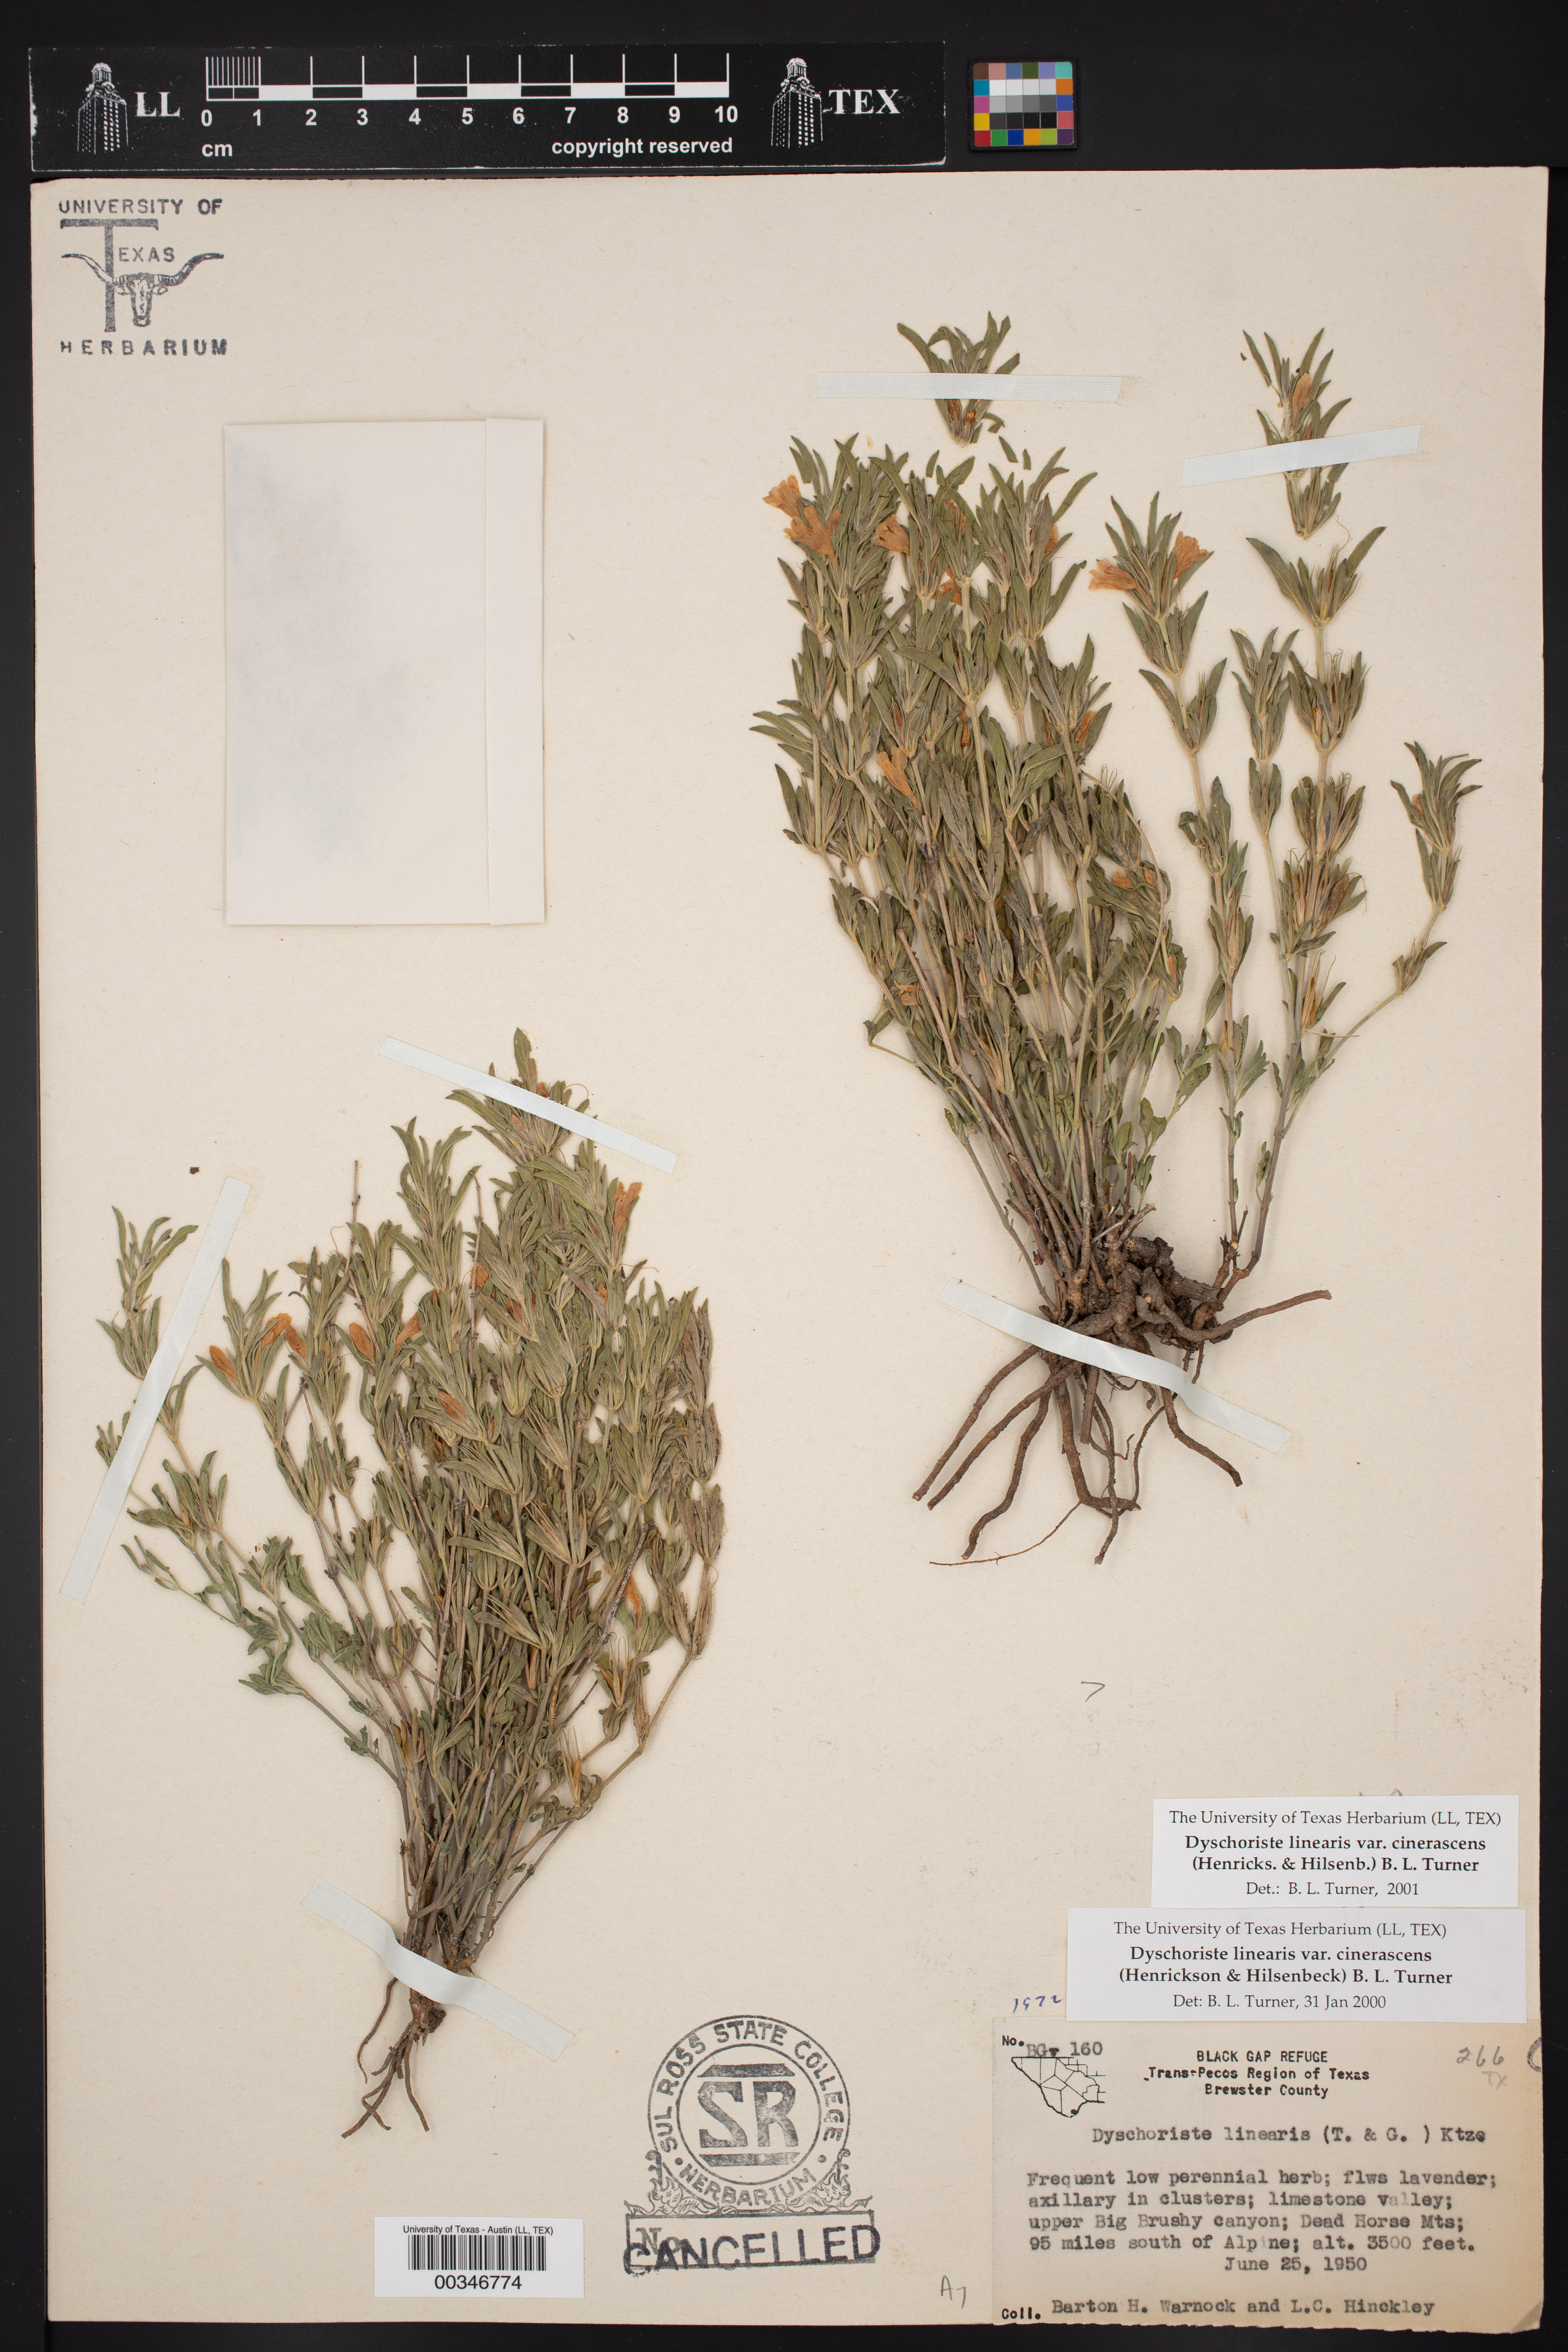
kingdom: Plantae
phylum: Tracheophyta
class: Magnoliopsida
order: Lamiales
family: Acanthaceae
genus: Dyschoriste
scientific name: Dyschoriste cinerascens
